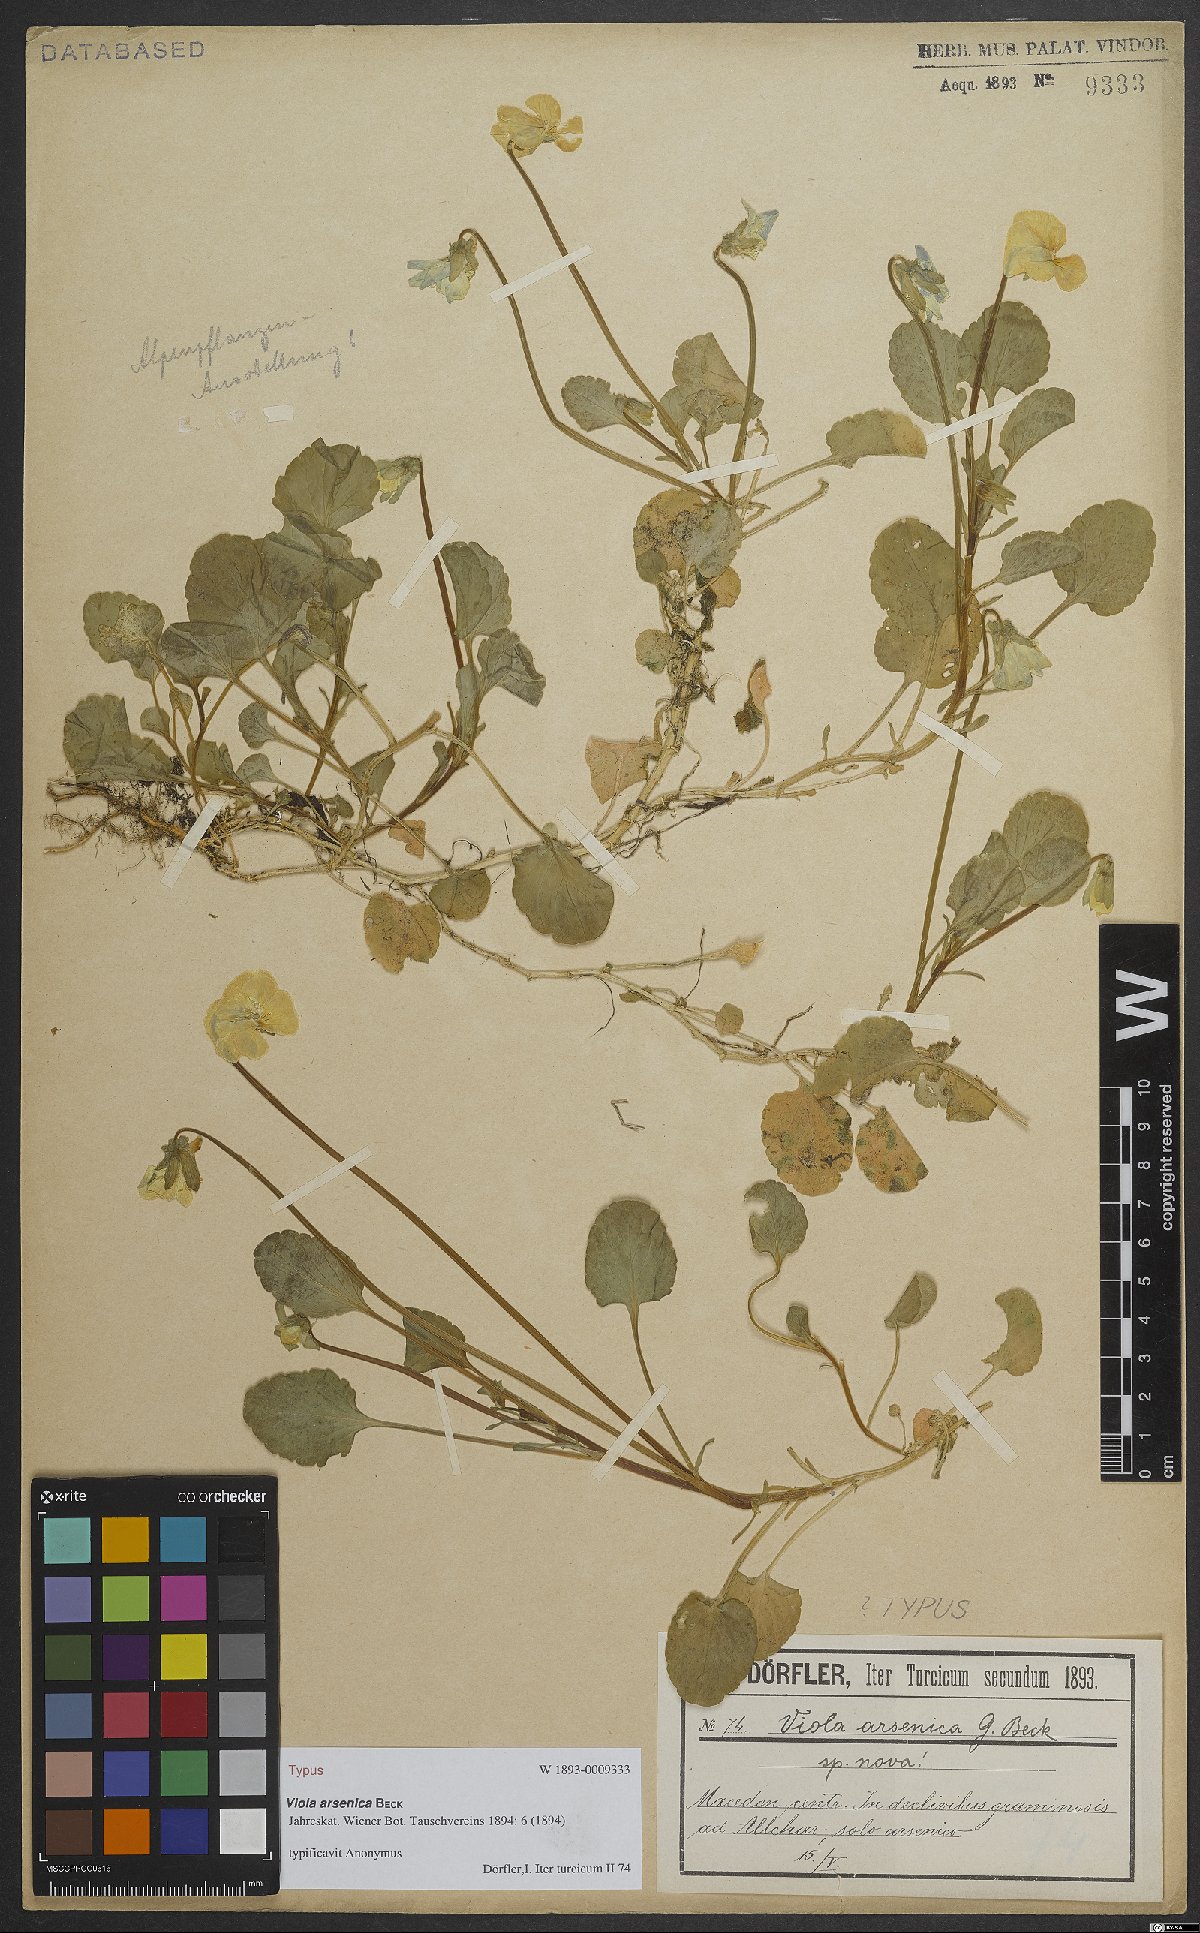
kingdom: Plantae
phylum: Tracheophyta
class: Magnoliopsida
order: Malpighiales
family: Violaceae
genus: Viola
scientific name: Viola arsenica
